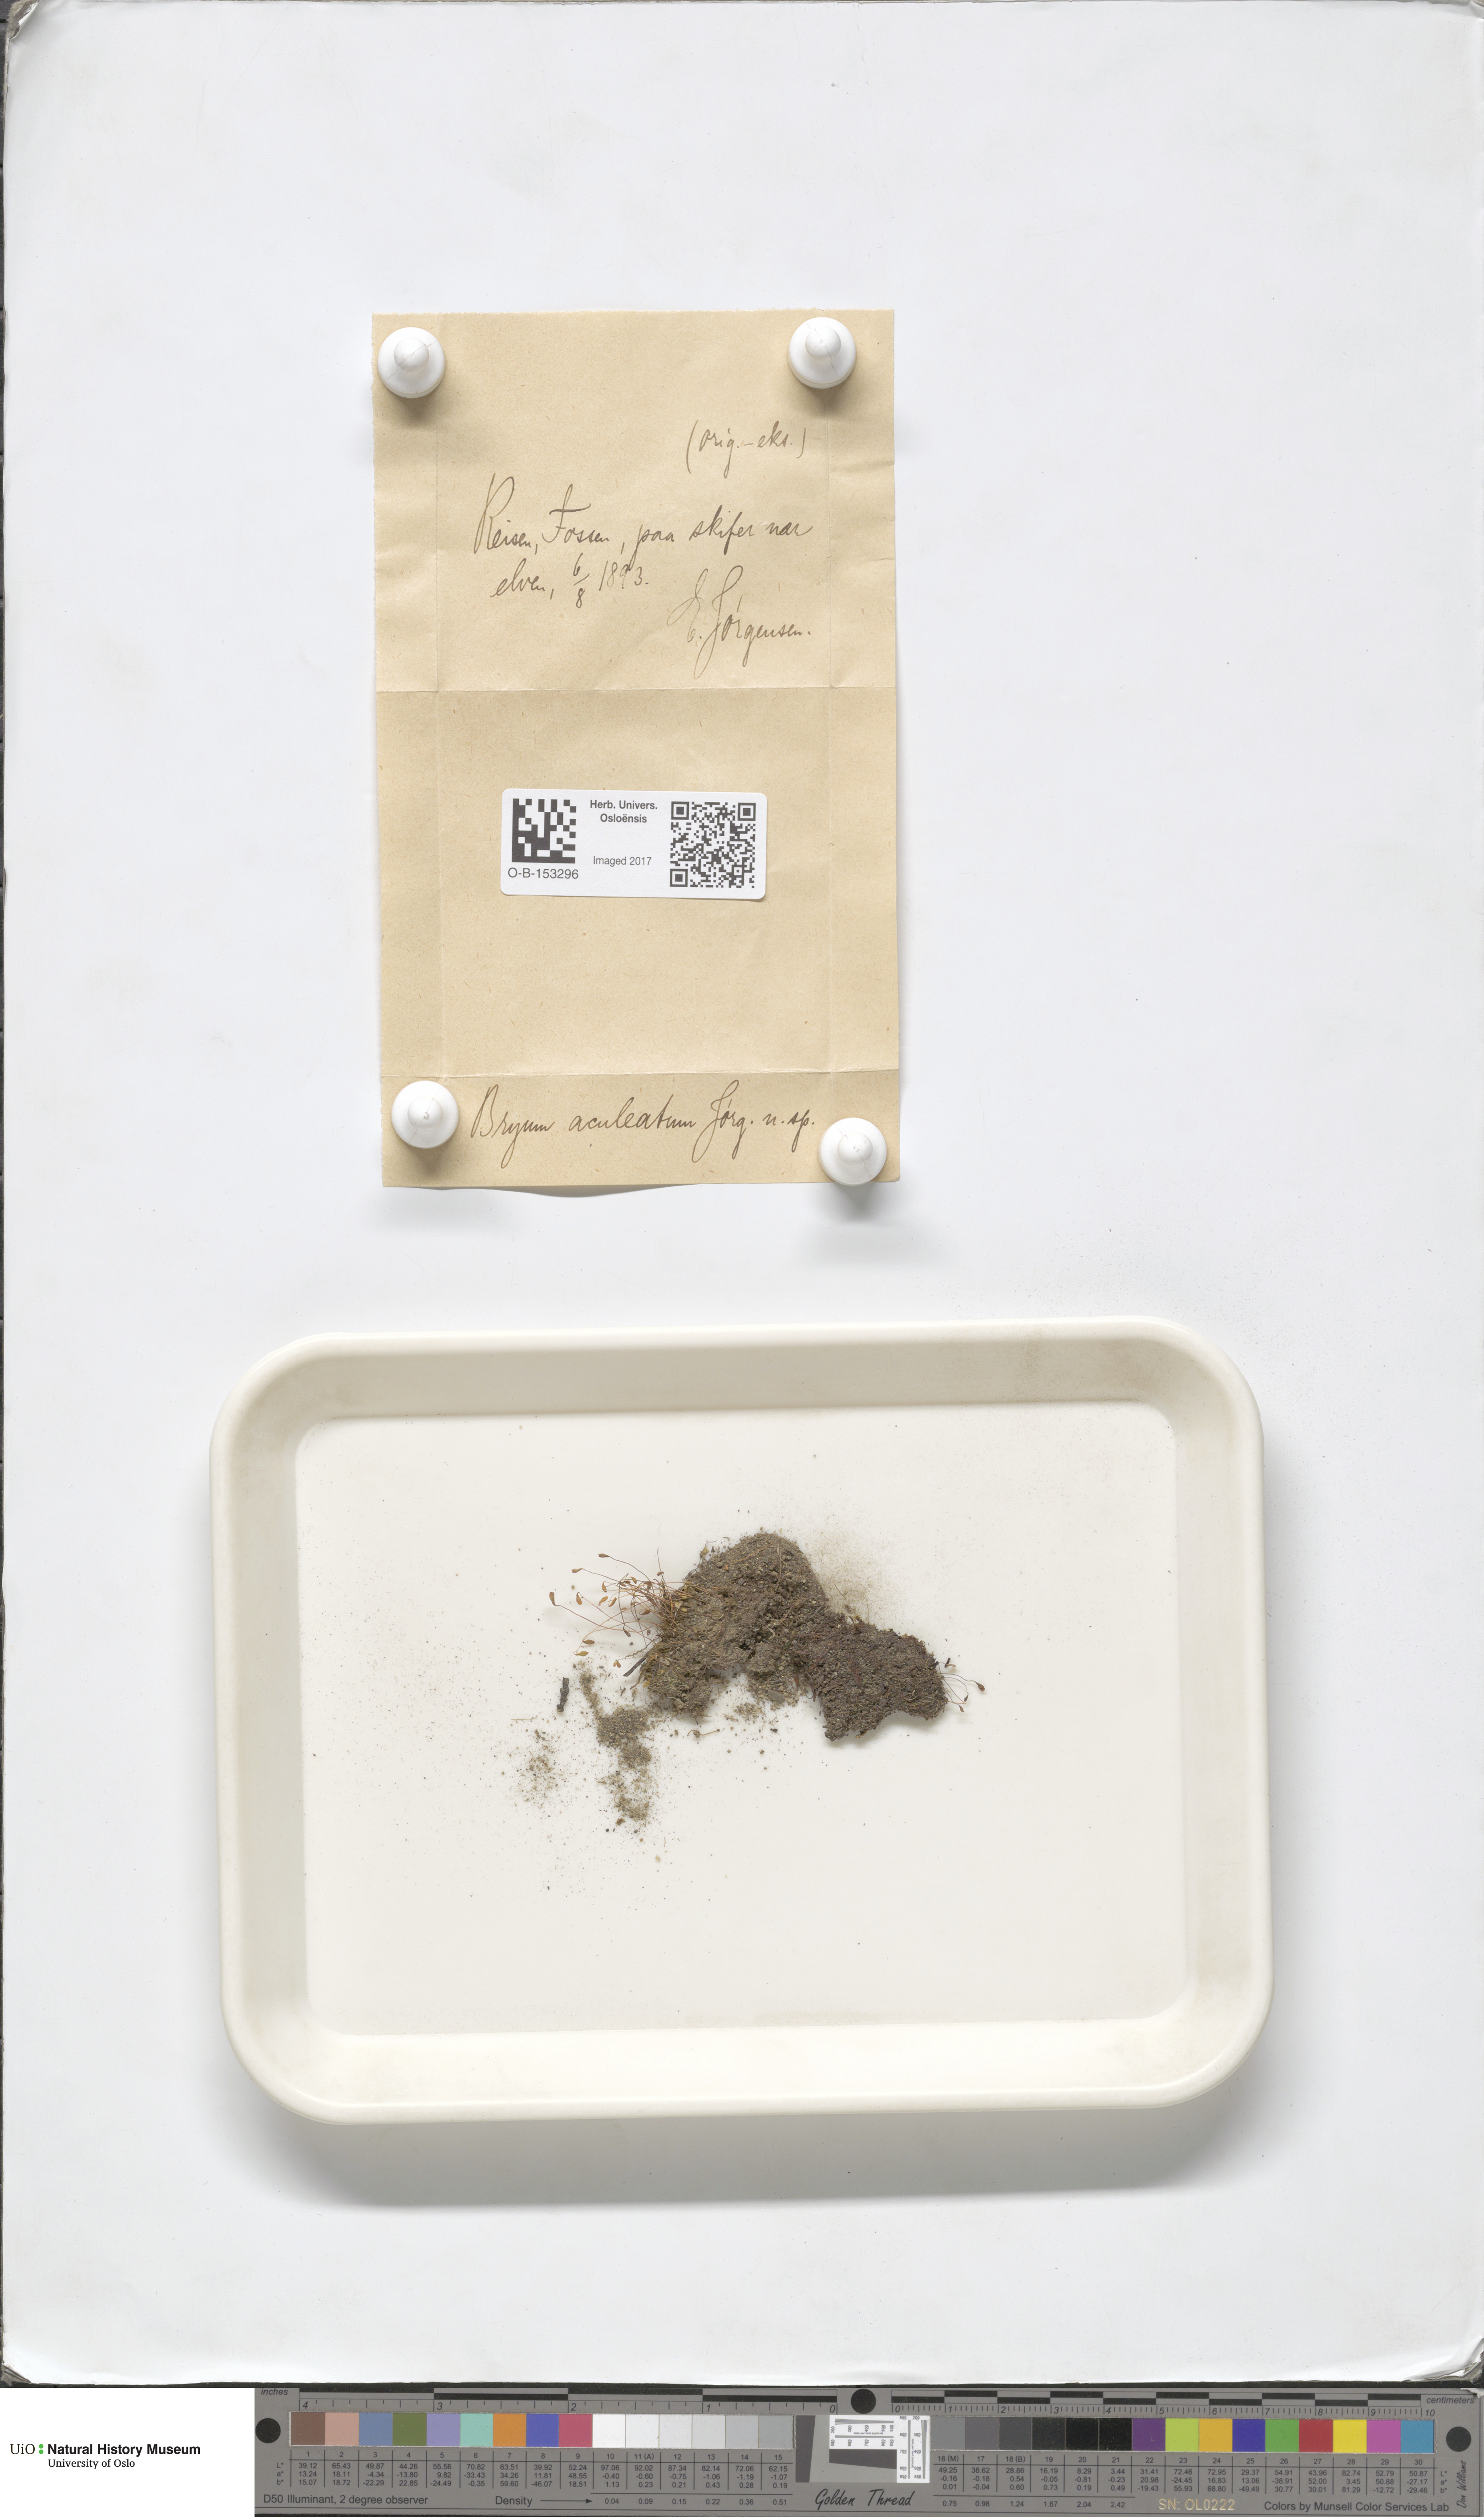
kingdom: Plantae
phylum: Bryophyta
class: Bryopsida
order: Bryales
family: Bryaceae
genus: Ptychostomum
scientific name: Ptychostomum inclinatum
